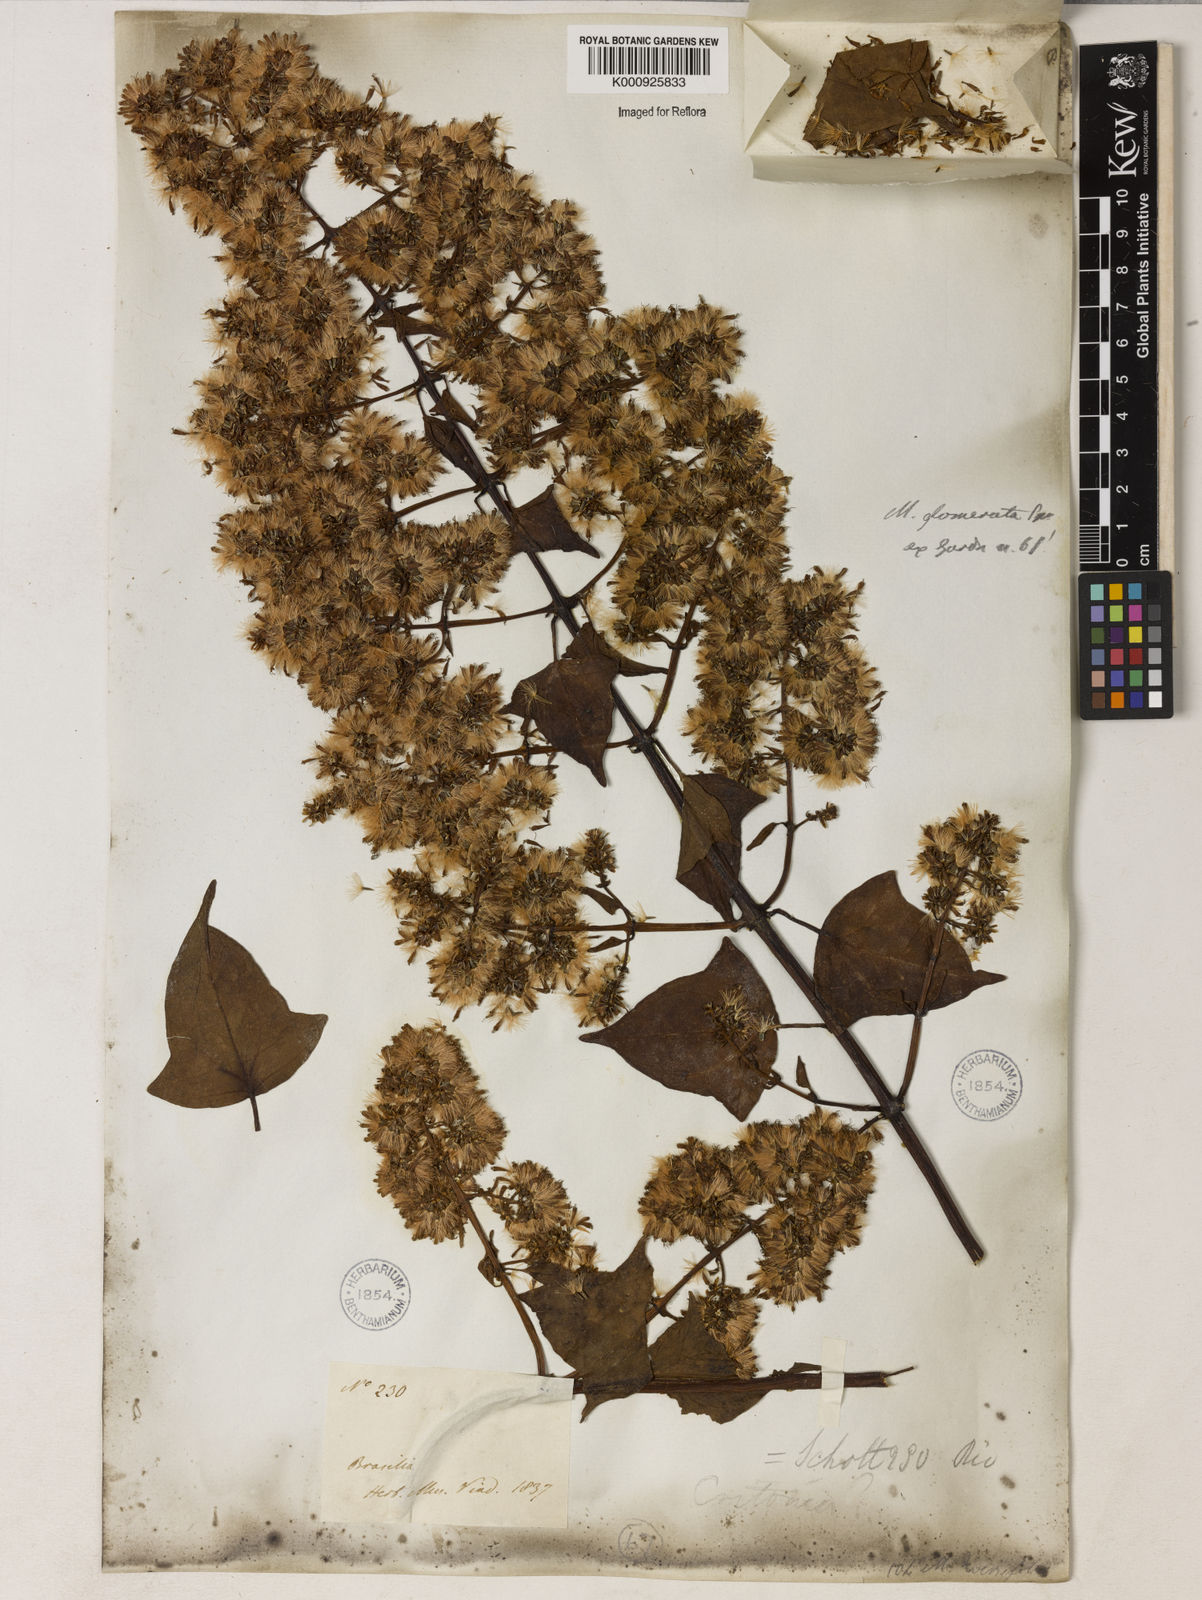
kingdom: Plantae
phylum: Tracheophyta
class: Magnoliopsida
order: Asterales
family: Asteraceae
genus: Mikania
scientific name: Mikania glomerata
